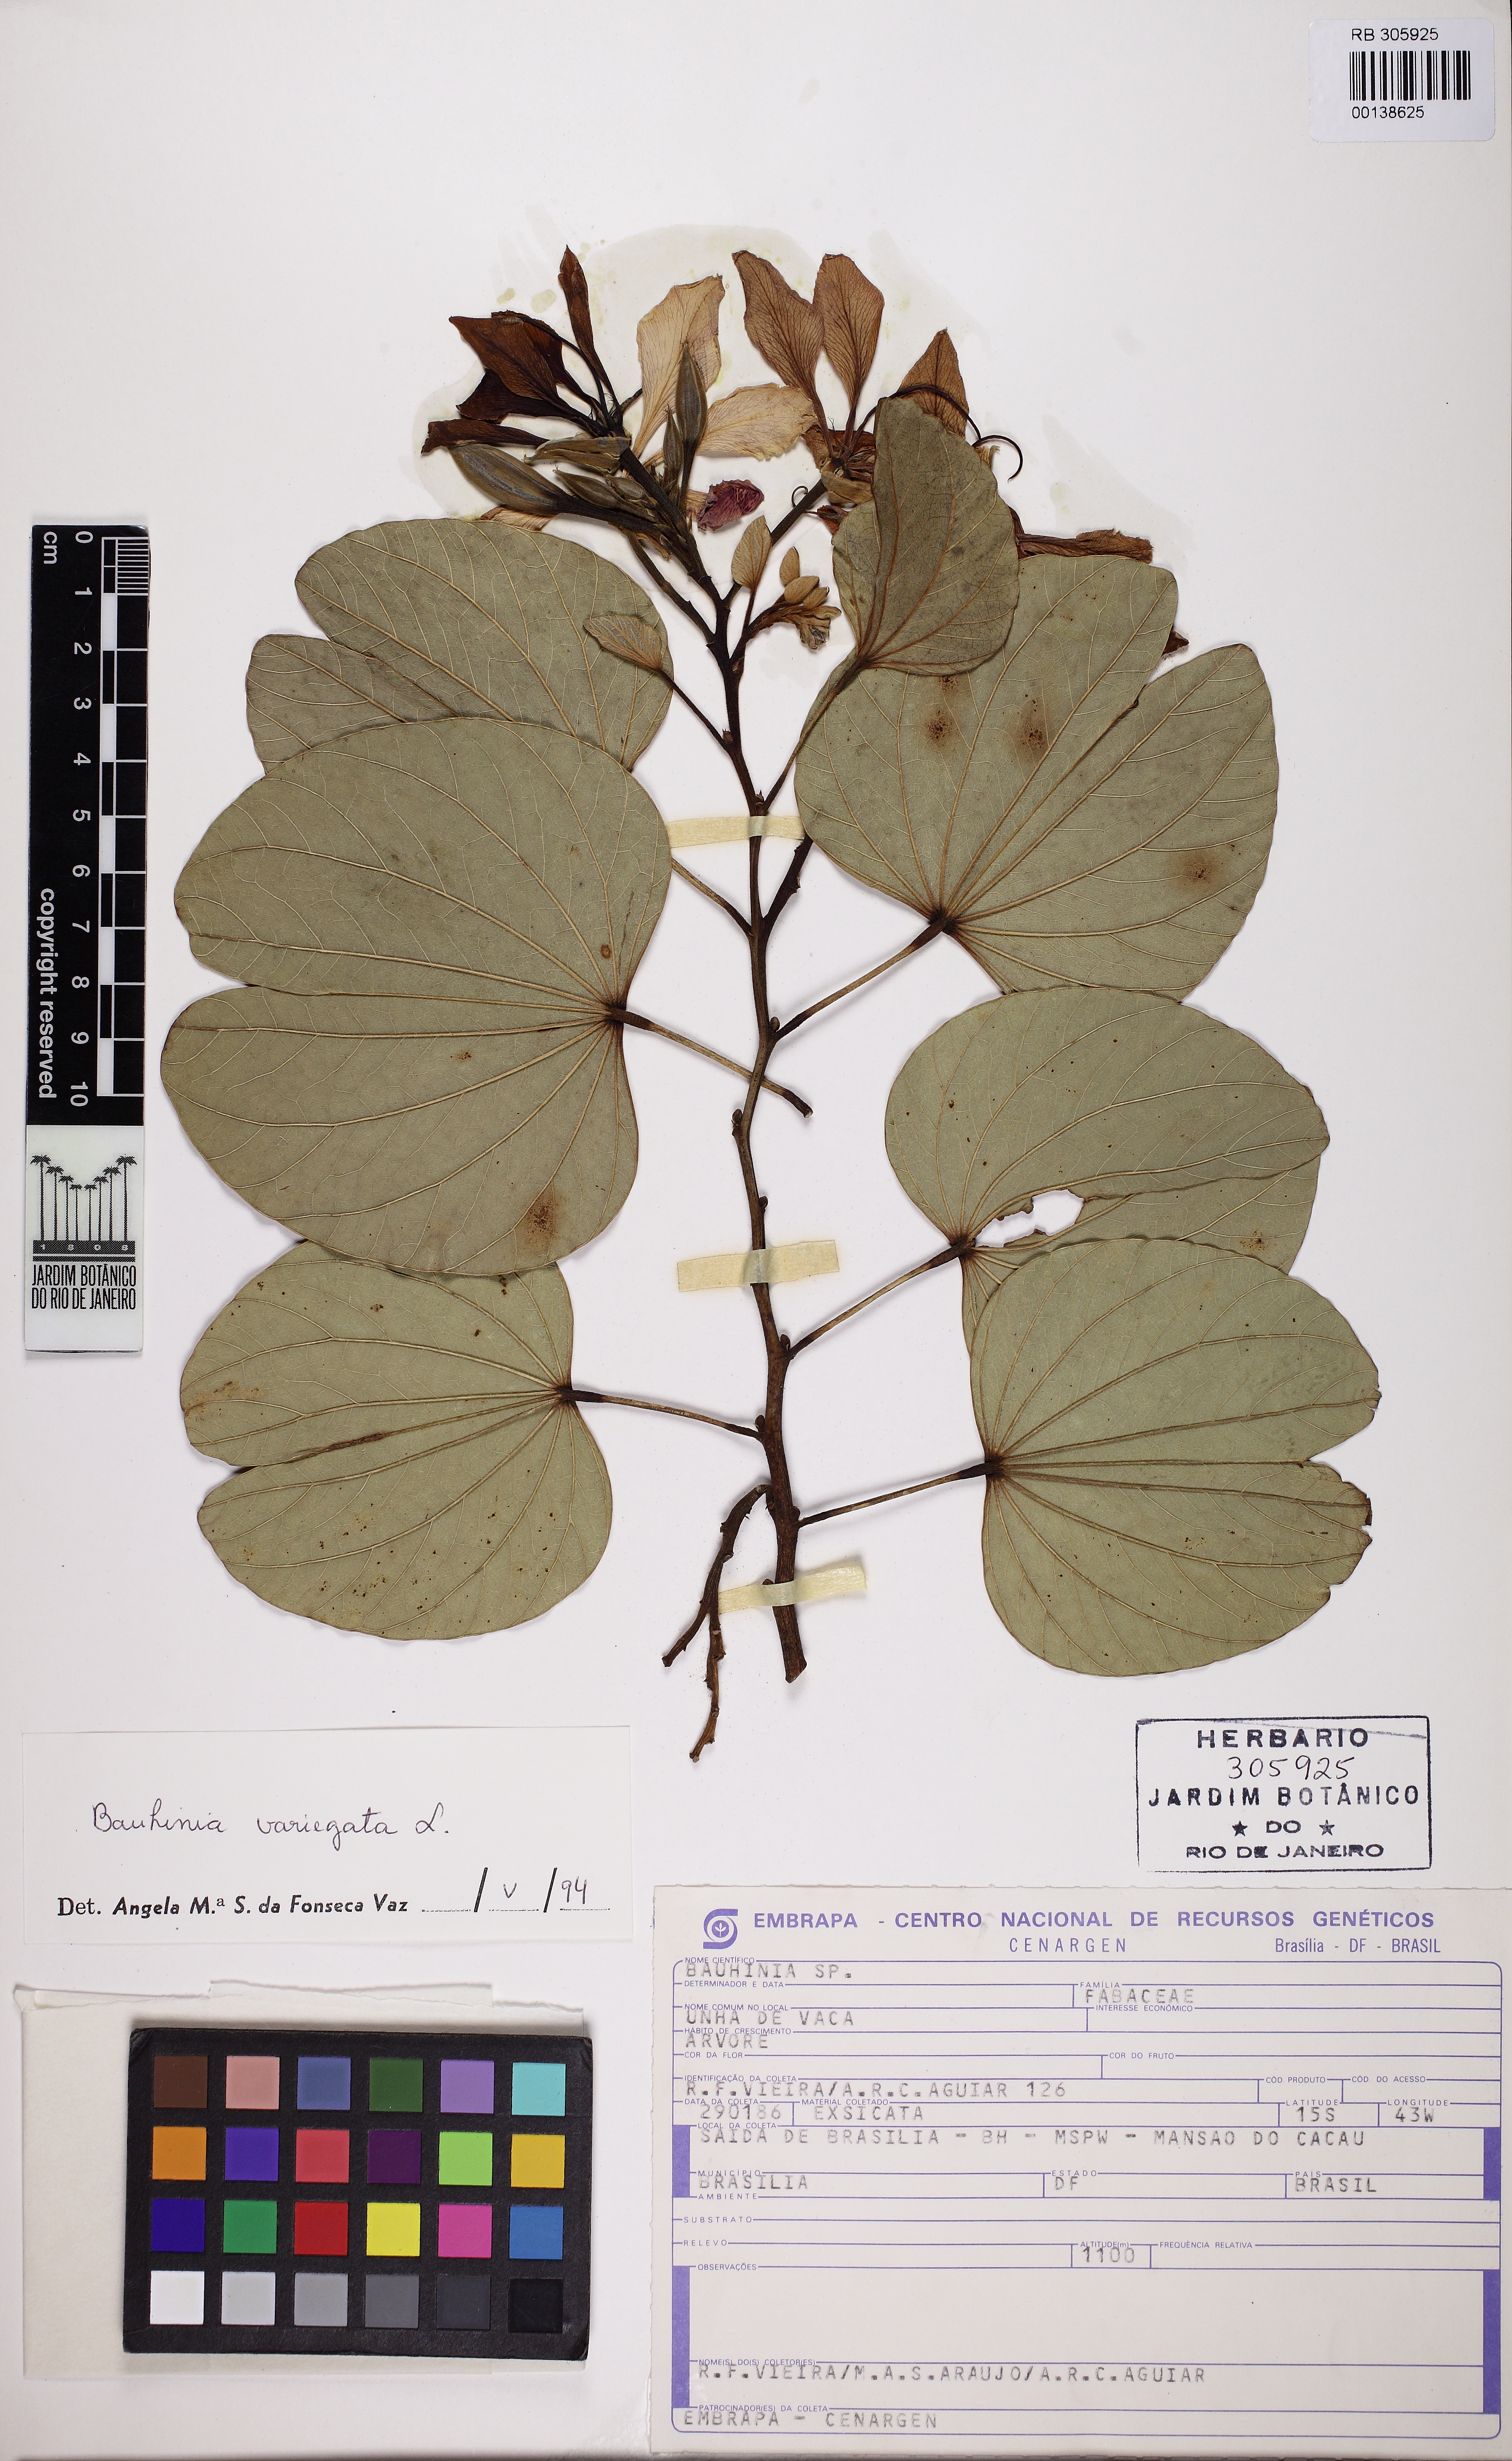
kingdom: Plantae
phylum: Tracheophyta
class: Magnoliopsida
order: Fabales
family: Fabaceae
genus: Bauhinia
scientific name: Bauhinia variegata
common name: Mountain ebony
